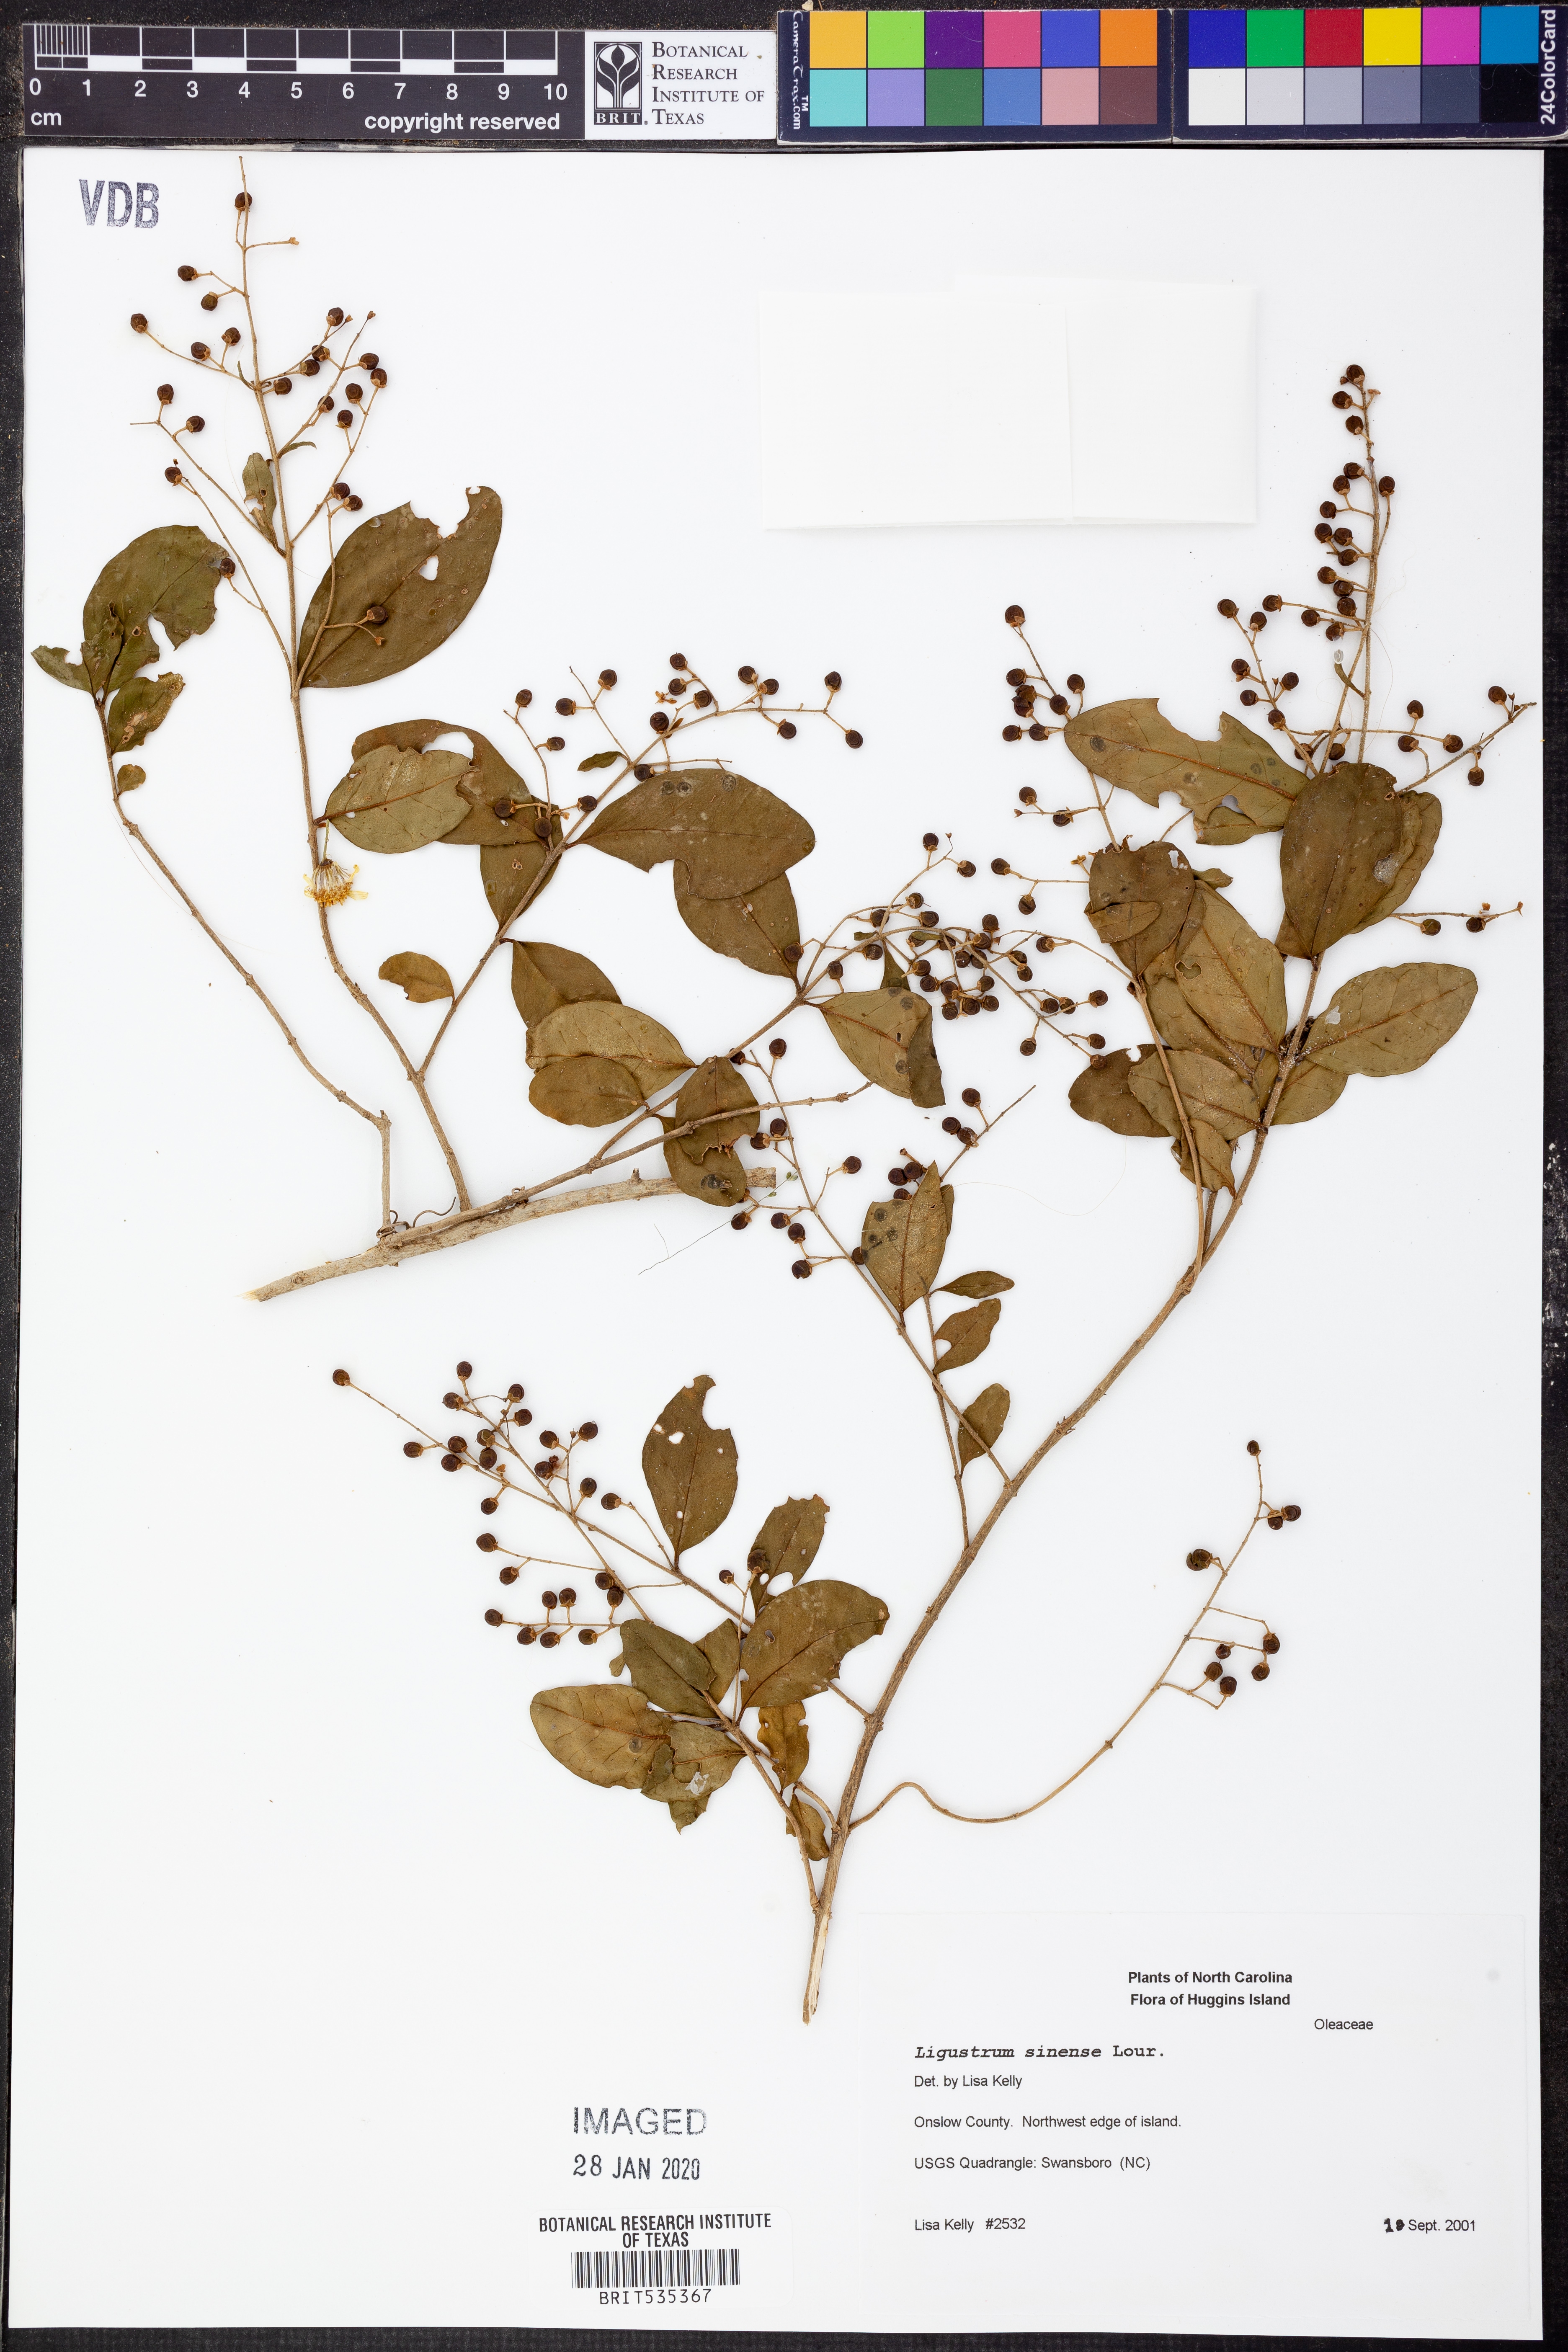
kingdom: Plantae
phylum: Tracheophyta
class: Magnoliopsida
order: Lamiales
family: Oleaceae
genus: Ligustrum
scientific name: Ligustrum sinense
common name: Chinese privet
